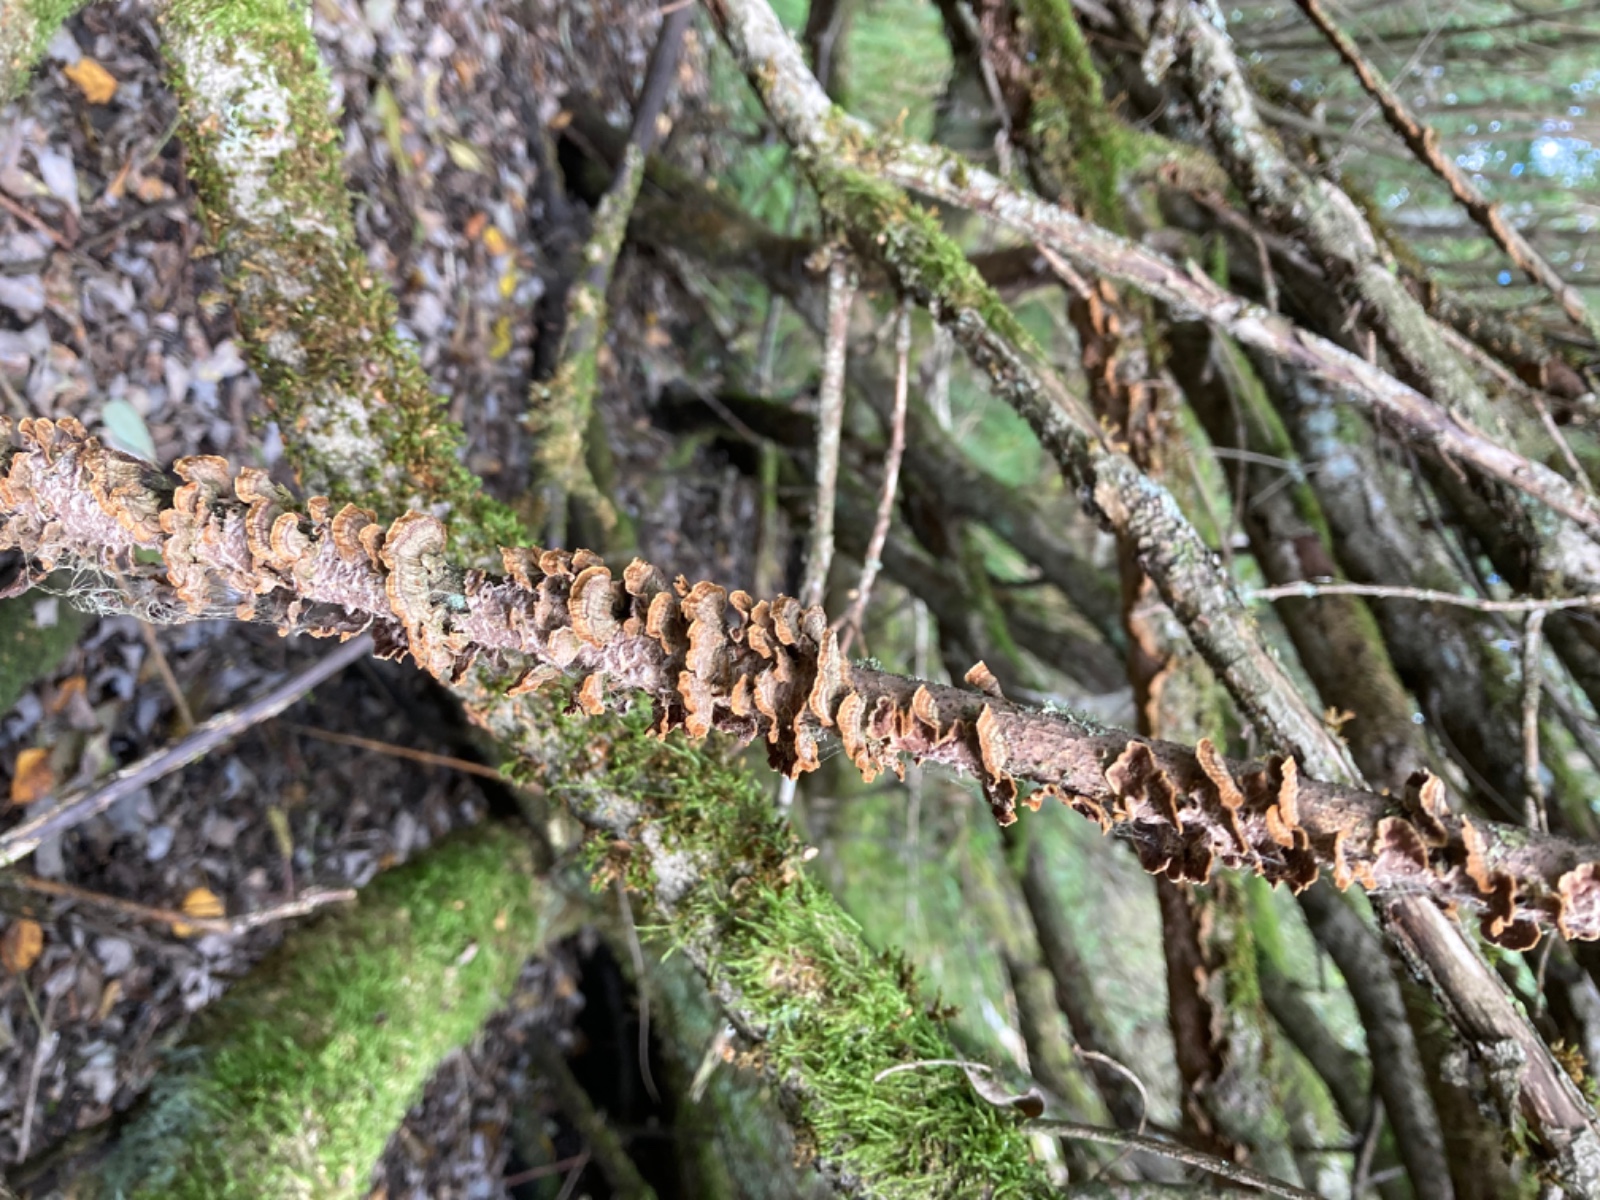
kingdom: Fungi
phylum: Basidiomycota
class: Agaricomycetes
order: Hymenochaetales
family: Hymenochaetaceae
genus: Hydnoporia
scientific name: Hydnoporia tabacina
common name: tobaksbrun ruslædersvamp
